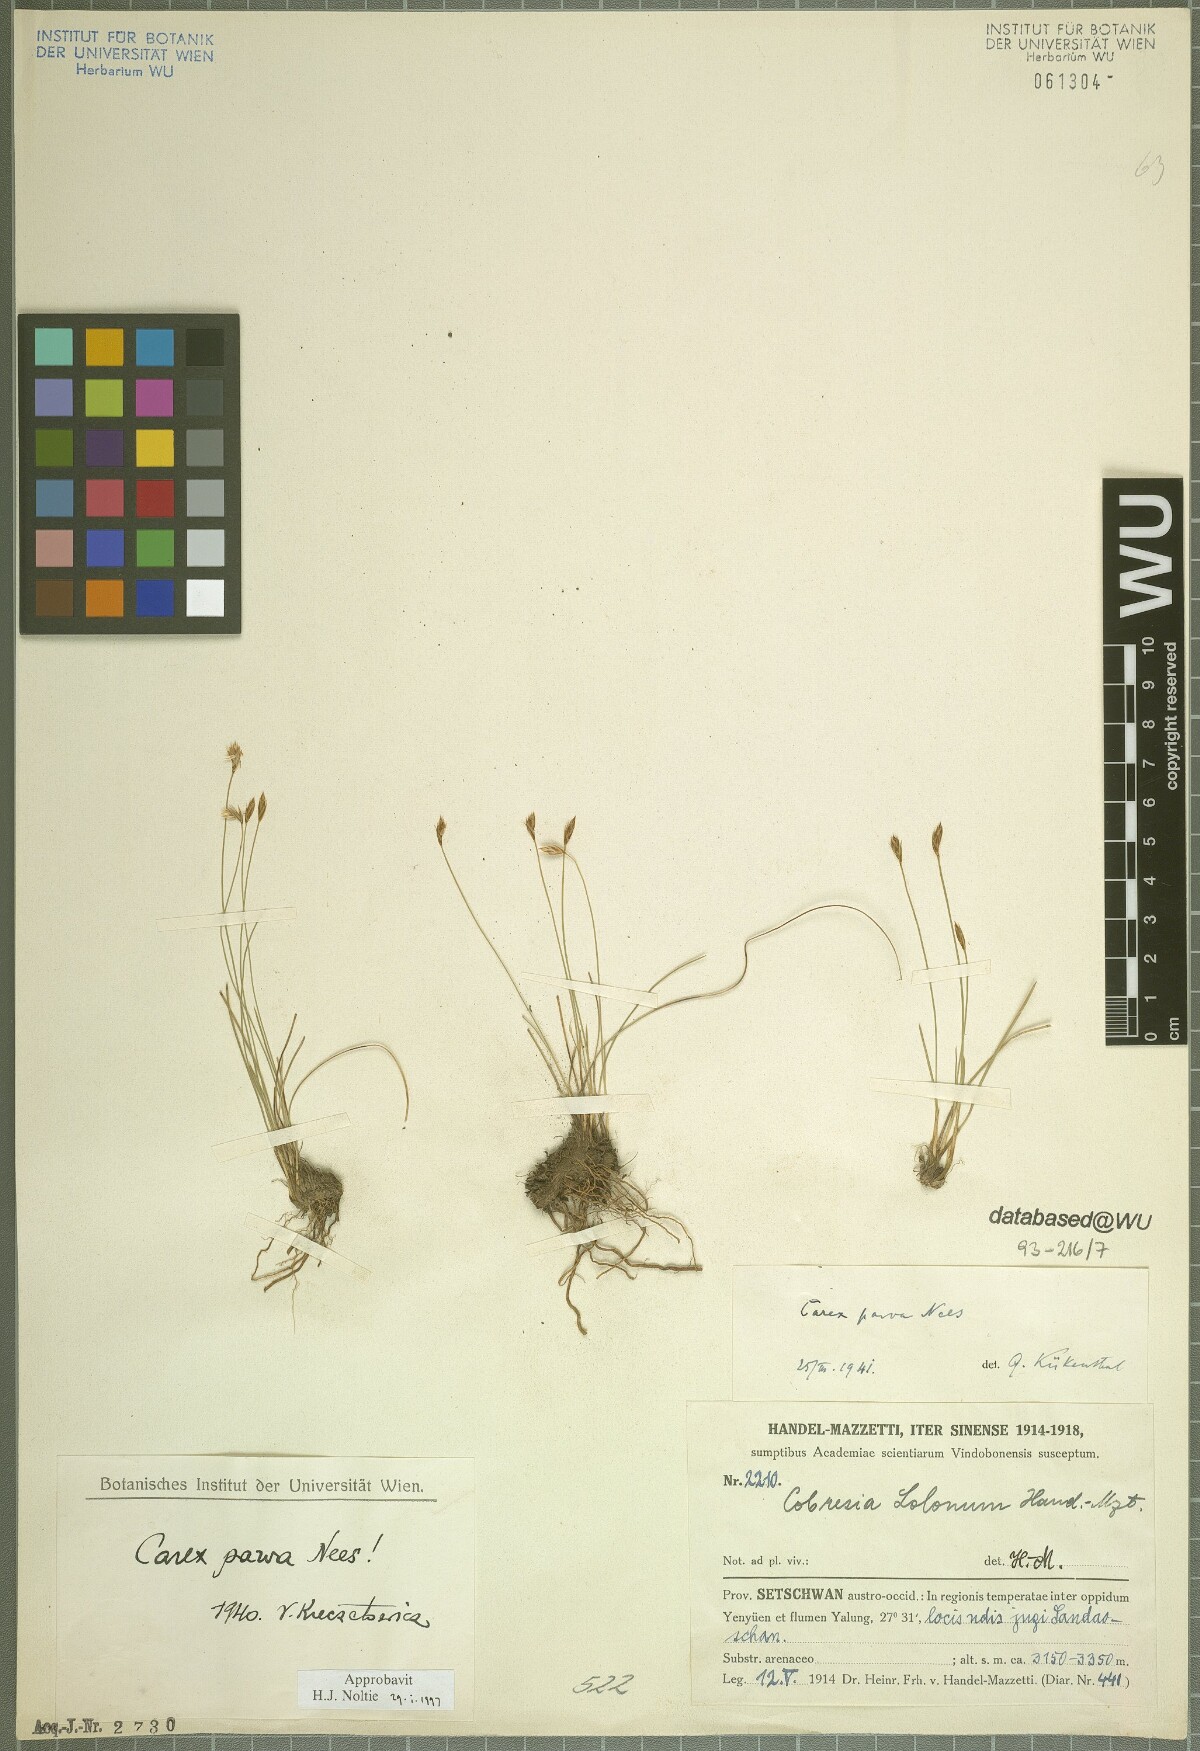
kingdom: Plantae
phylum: Tracheophyta
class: Liliopsida
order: Poales
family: Cyperaceae
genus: Carex
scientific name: Carex parva
